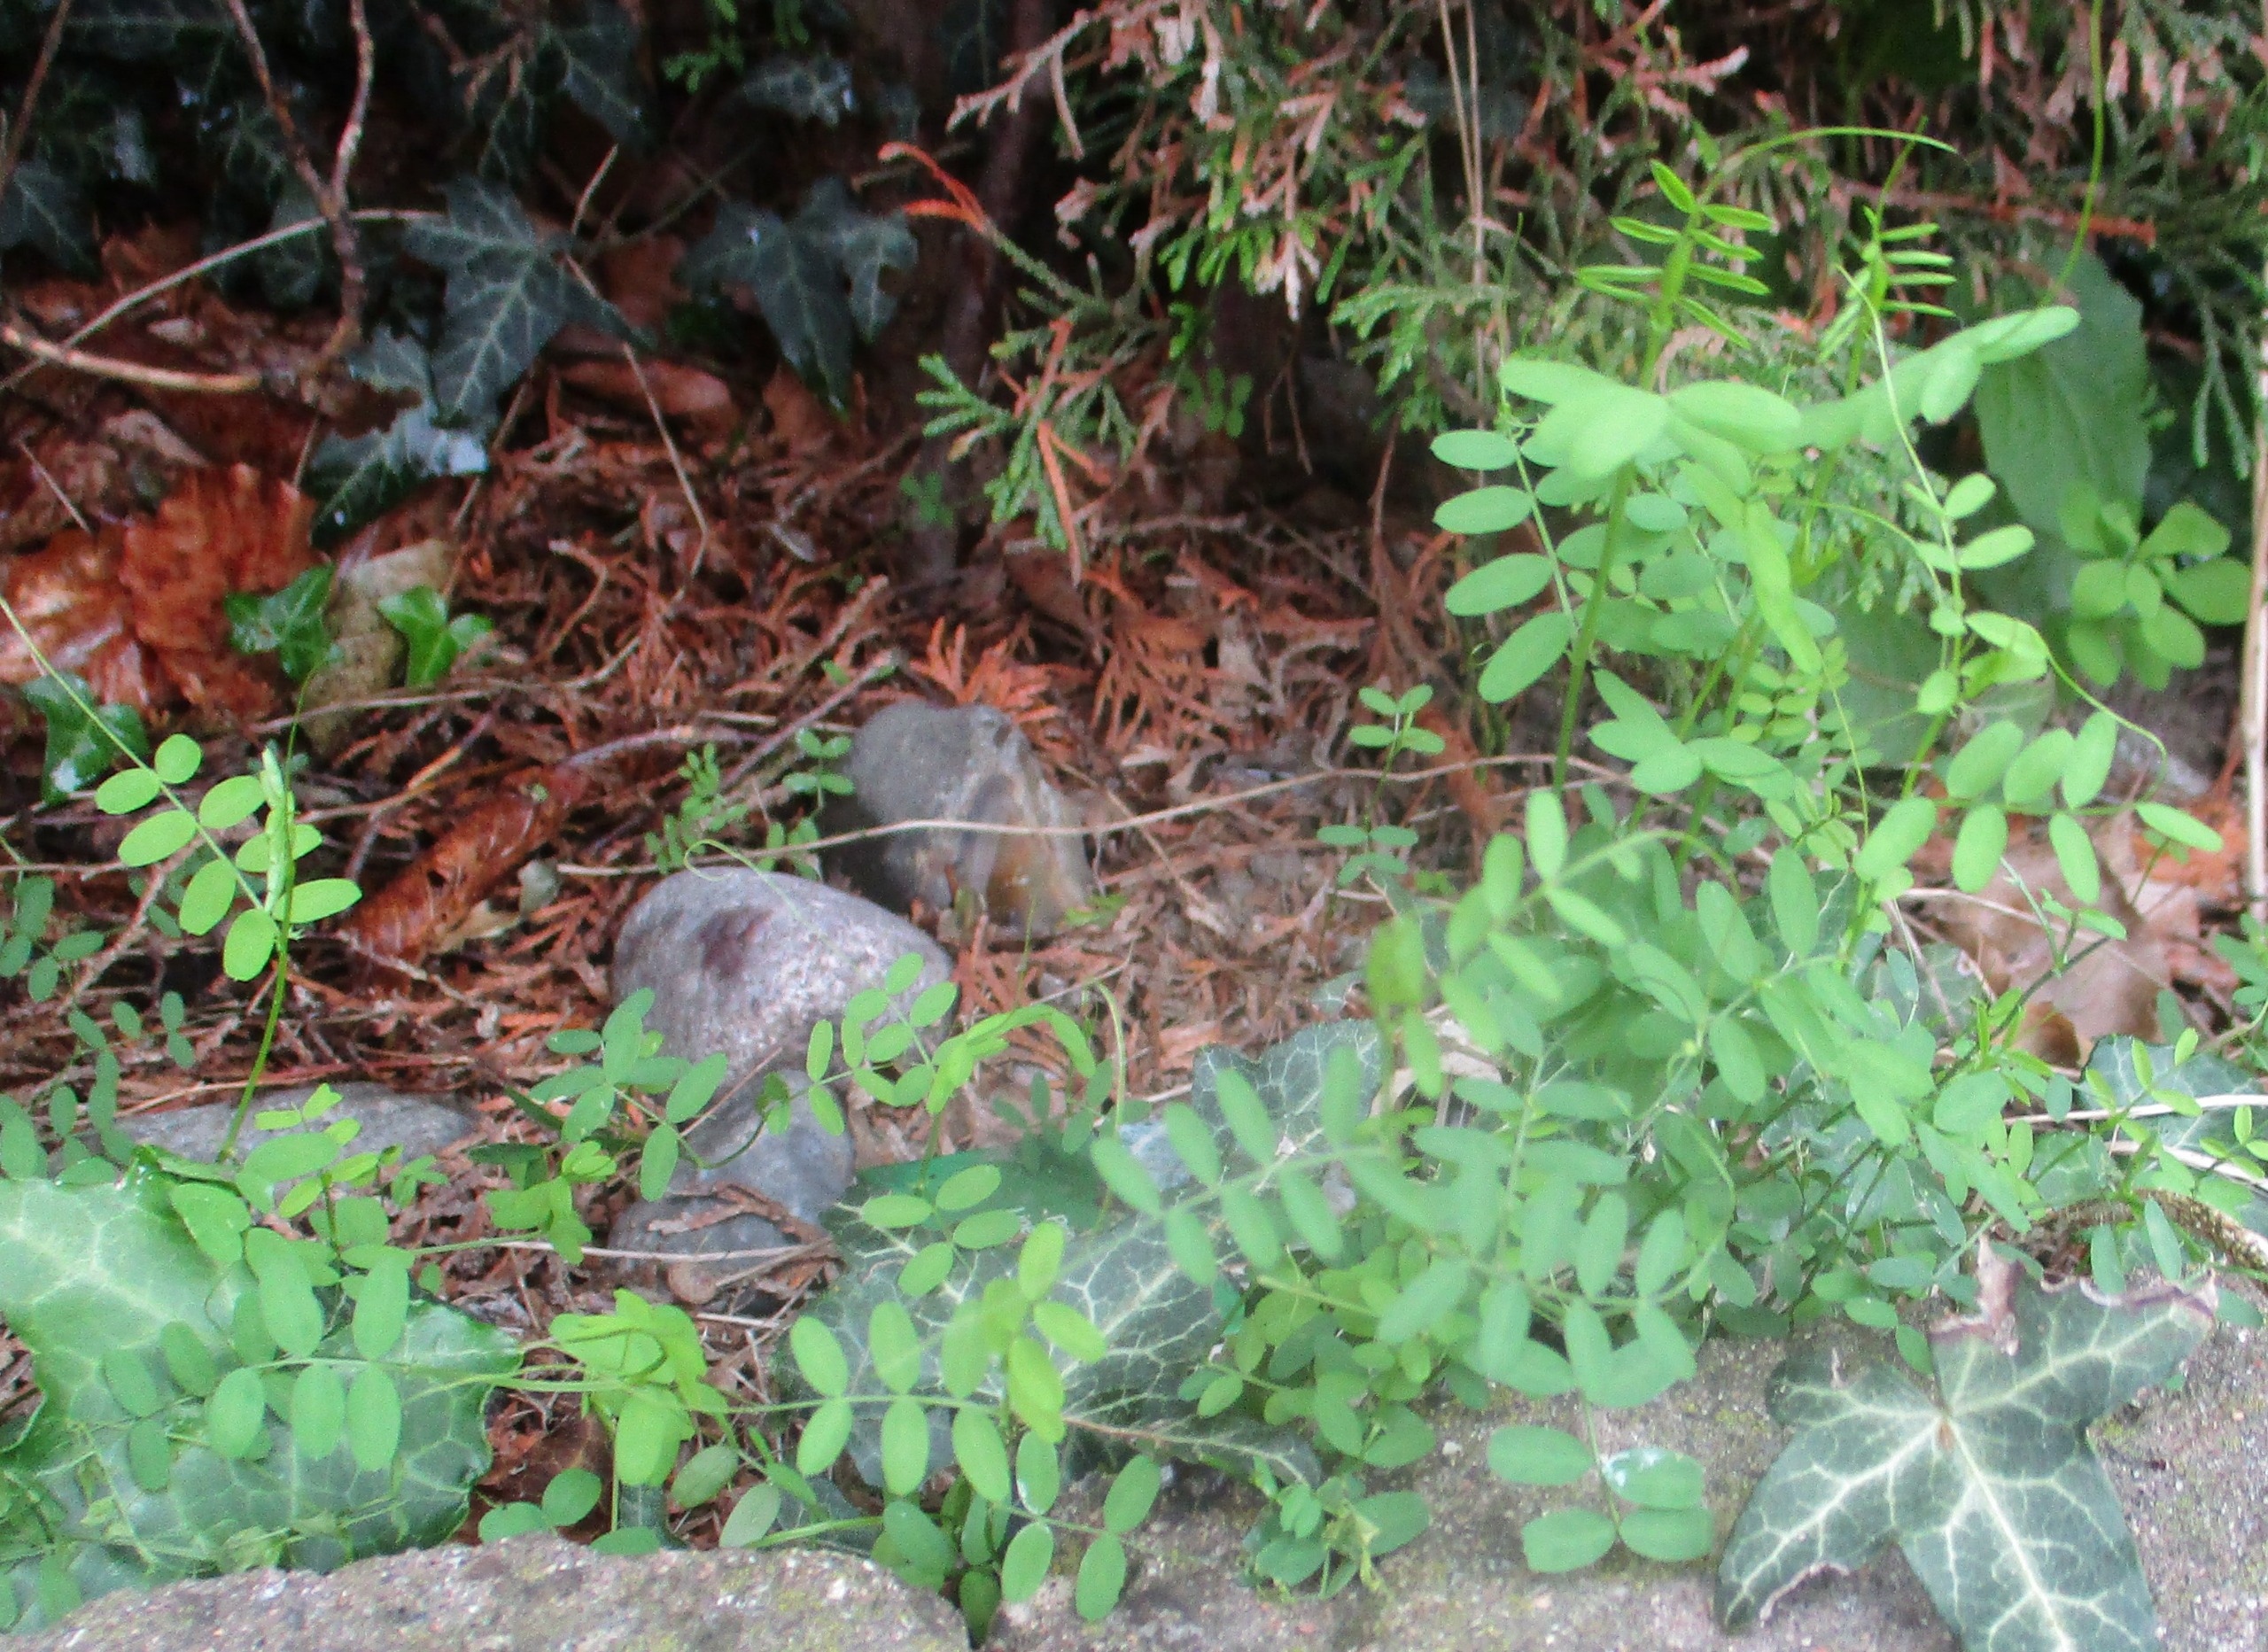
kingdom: Plantae
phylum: Tracheophyta
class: Magnoliopsida
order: Fabales
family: Fabaceae
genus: Vicia
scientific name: Vicia
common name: Vikkeslægten
